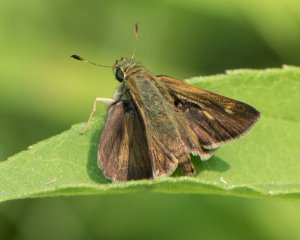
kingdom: Animalia
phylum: Arthropoda
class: Insecta
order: Lepidoptera
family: Hesperiidae
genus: Polites
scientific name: Polites egeremet
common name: Northern Broken-Dash
